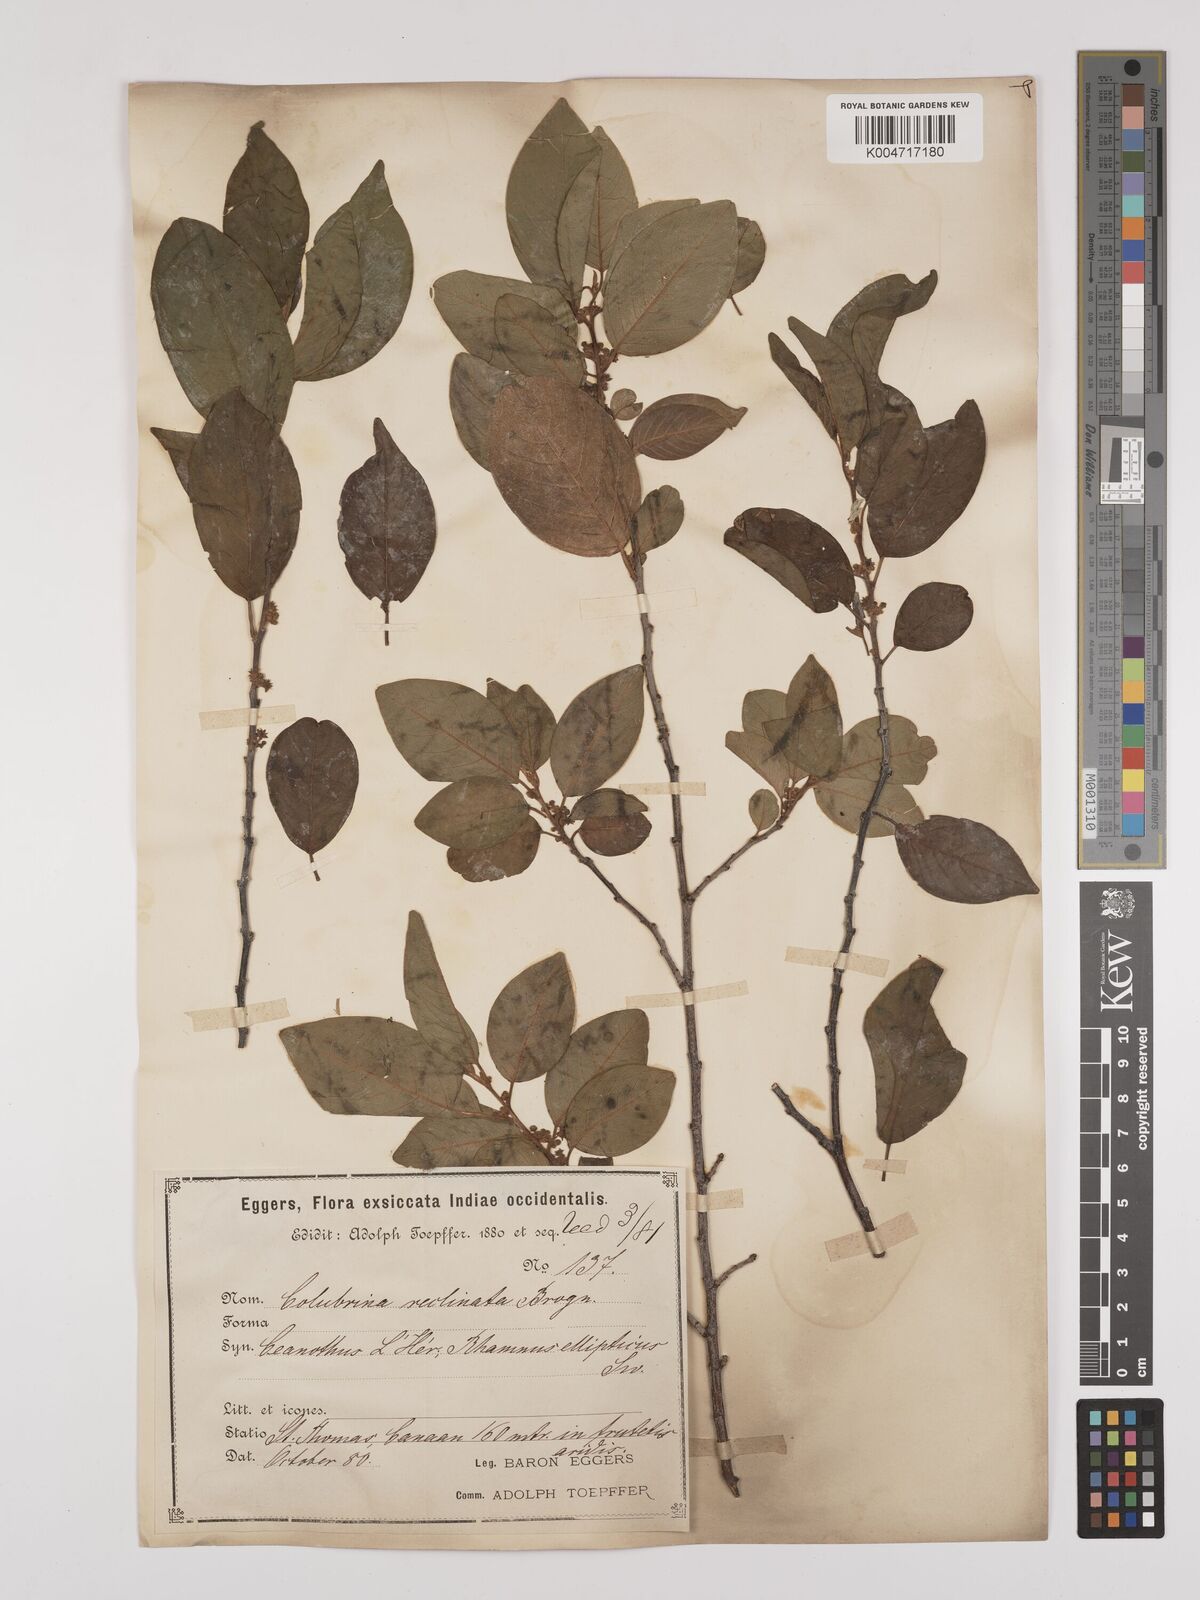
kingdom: Plantae
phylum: Tracheophyta
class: Magnoliopsida
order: Rosales
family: Rhamnaceae
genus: Colubrina
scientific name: Colubrina elliptica
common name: Soldierwood
